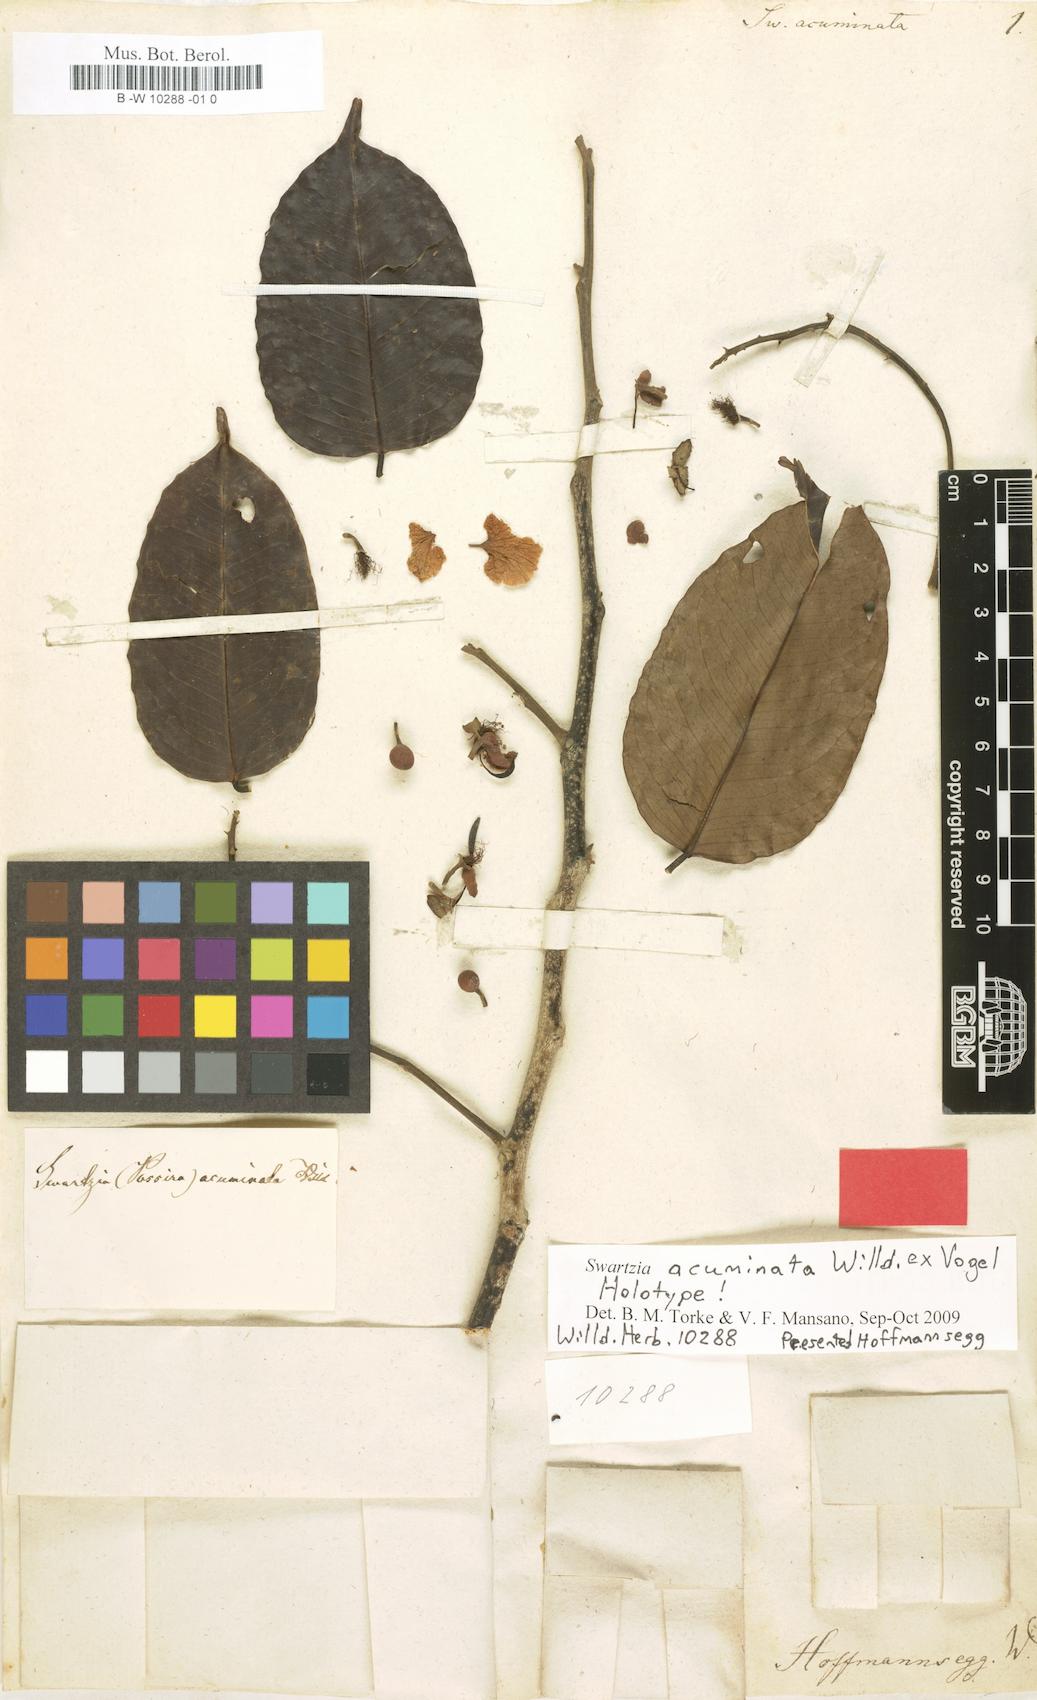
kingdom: Plantae
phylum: Tracheophyta
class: Magnoliopsida
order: Fabales
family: Fabaceae
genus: Swartzia
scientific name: Swartzia acuminata
